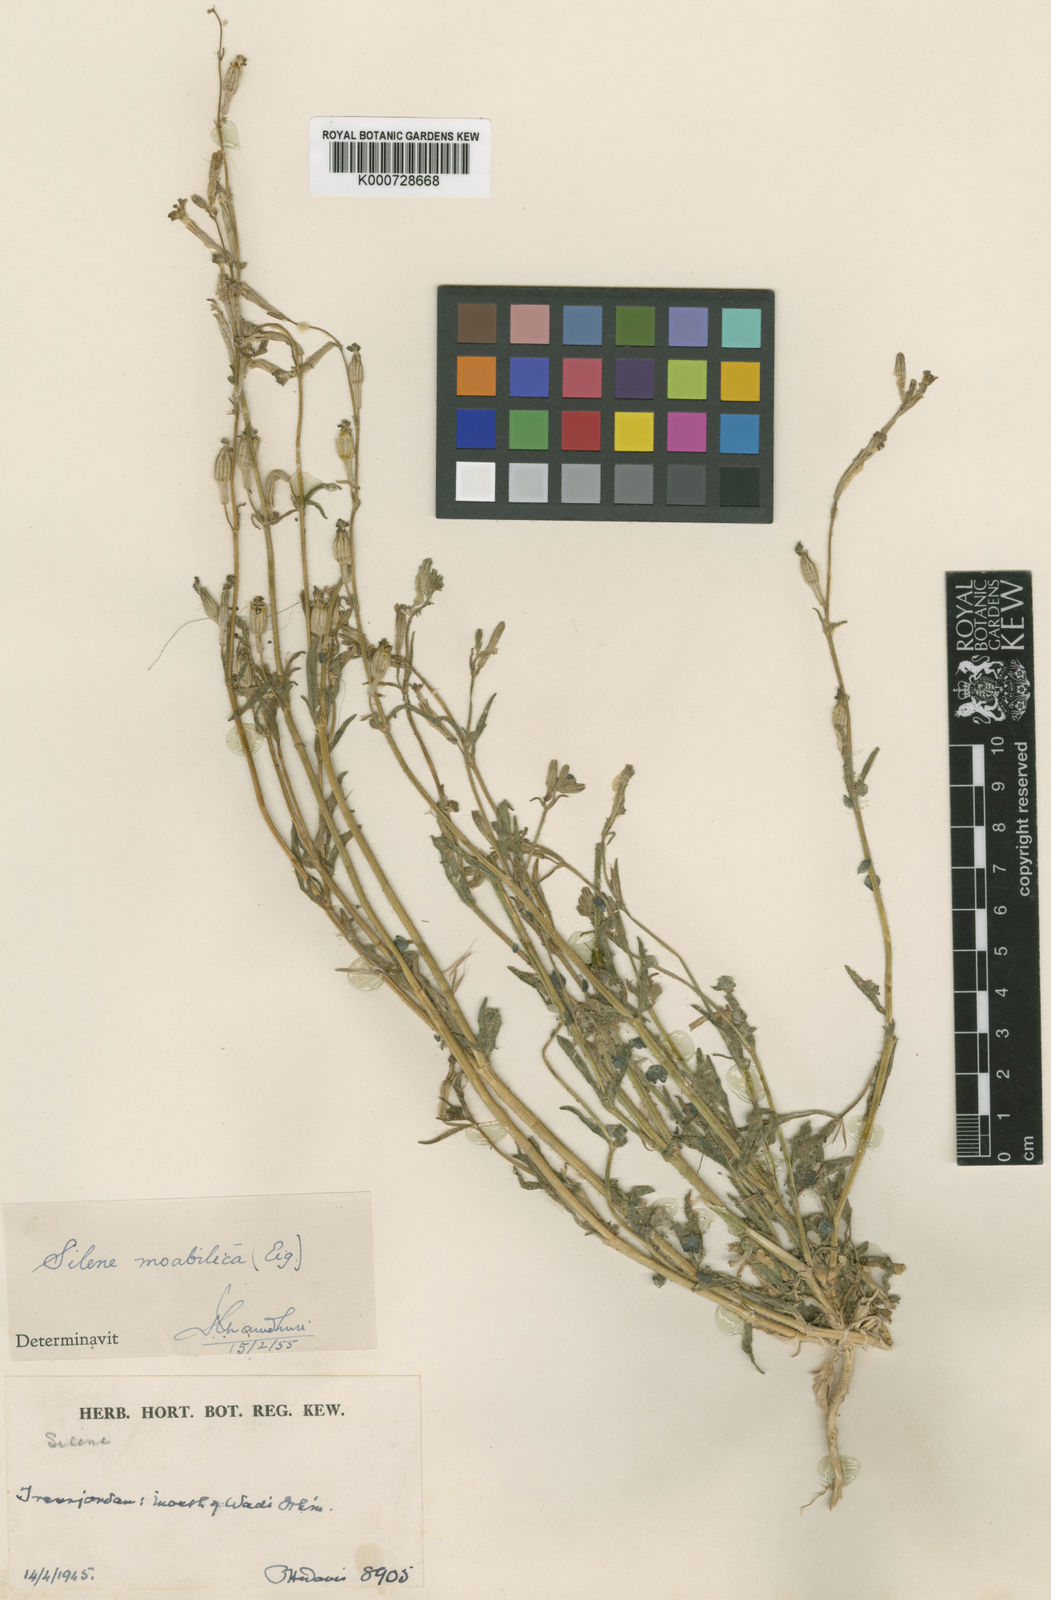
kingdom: Plantae
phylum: Tracheophyta
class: Magnoliopsida
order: Caryophyllales
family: Caryophyllaceae
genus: Silene
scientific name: Silene moabitica
